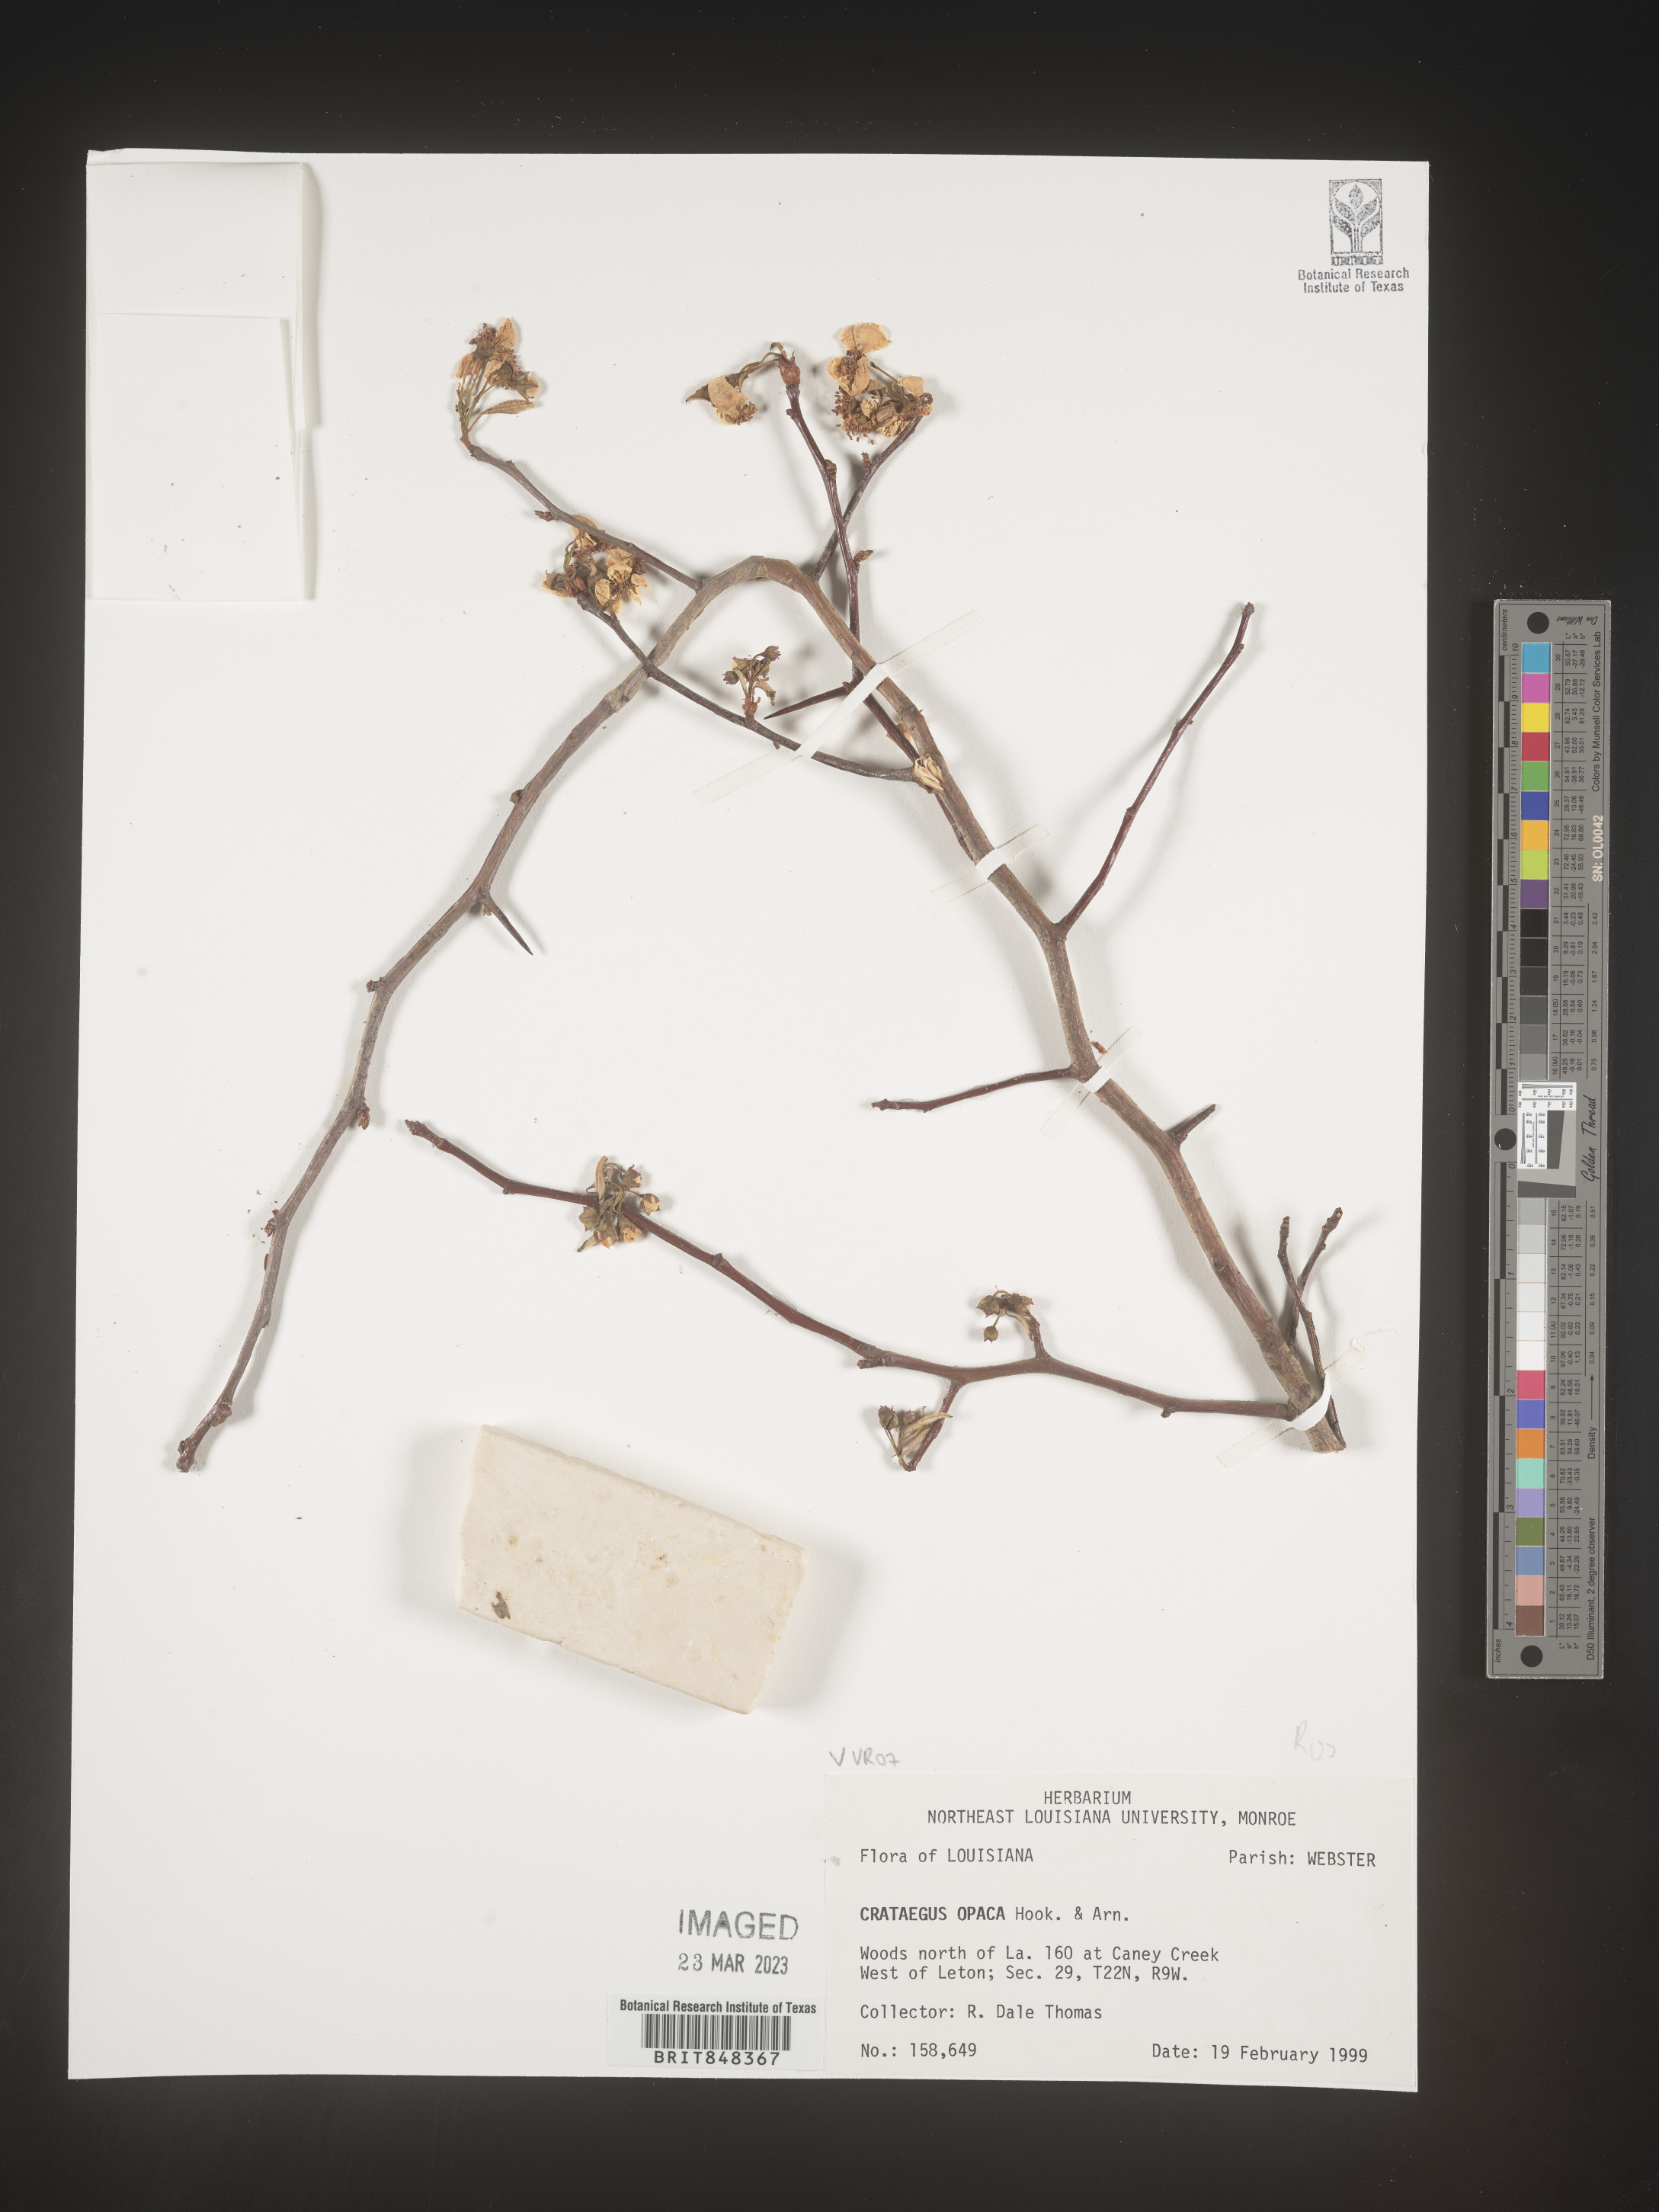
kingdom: Plantae
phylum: Tracheophyta
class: Magnoliopsida
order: Rosales
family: Rosaceae
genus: Crataegus
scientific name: Crataegus opaca
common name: Apple haw
